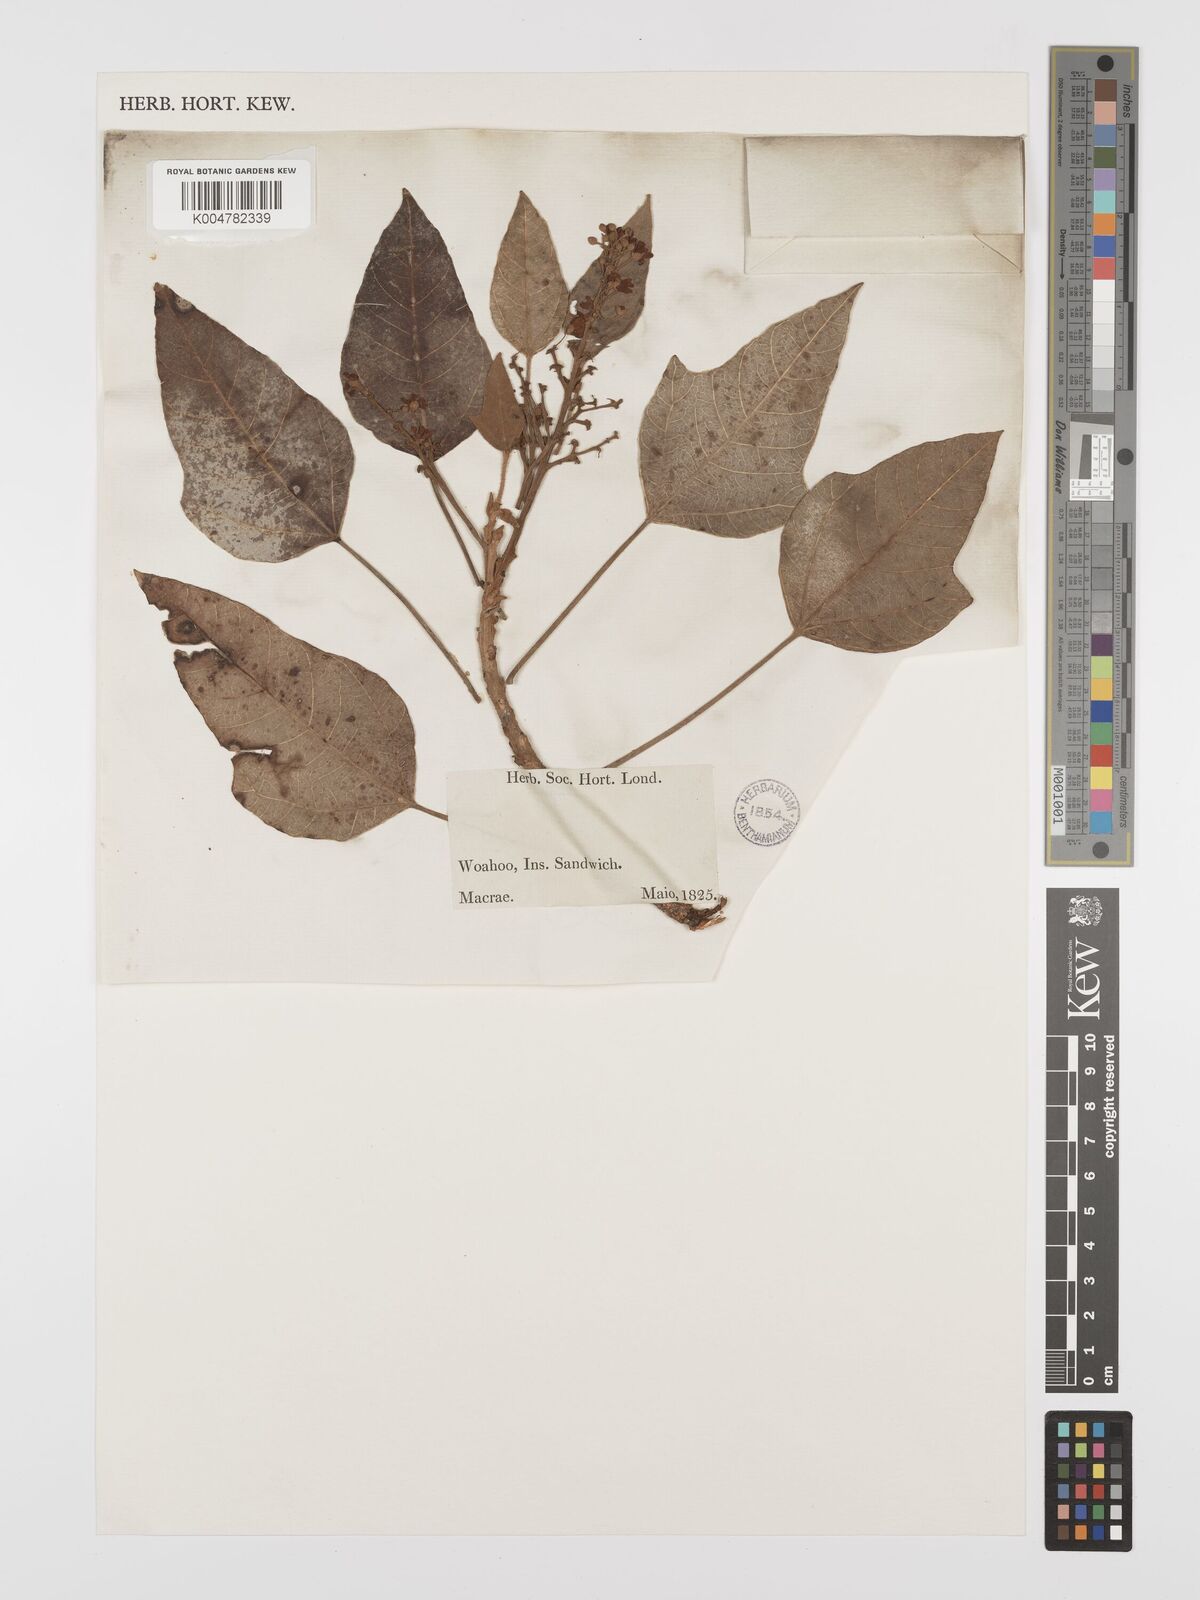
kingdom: Plantae
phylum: Tracheophyta
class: Magnoliopsida
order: Malpighiales
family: Euphorbiaceae
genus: Aleurites
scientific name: Aleurites
